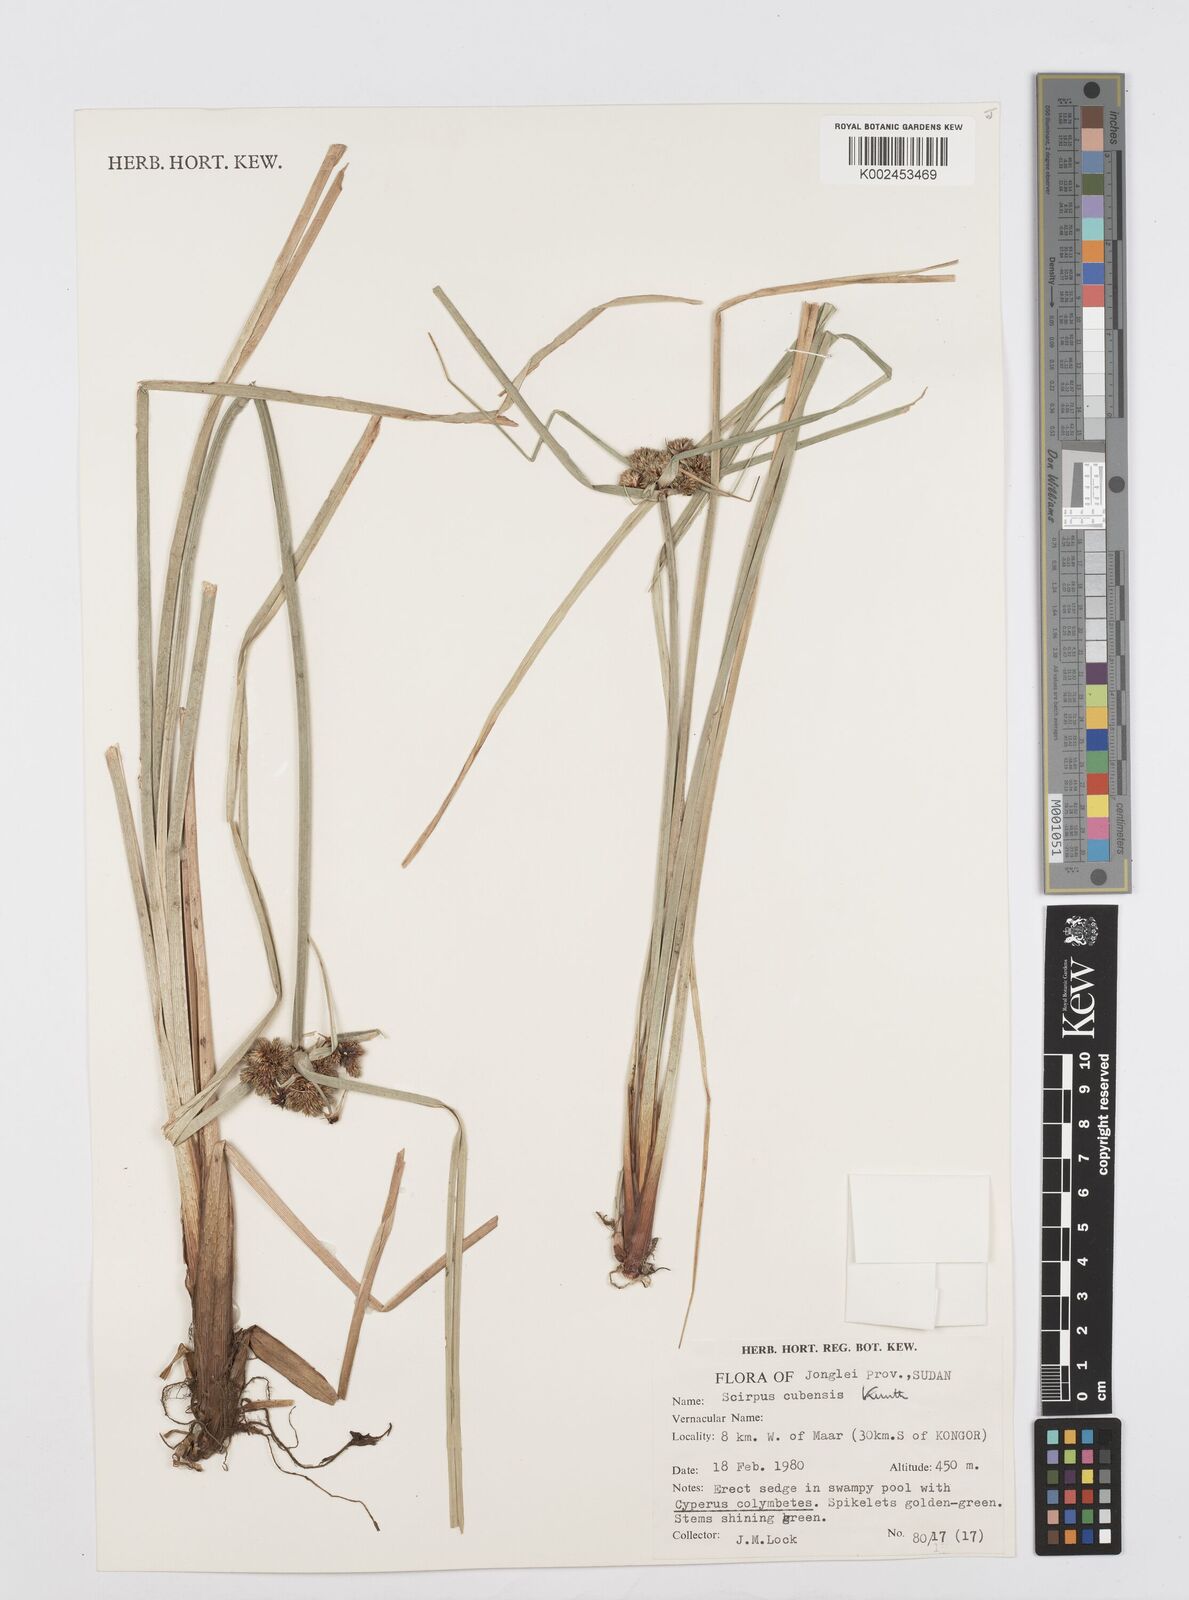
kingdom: Plantae
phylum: Tracheophyta
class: Liliopsida
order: Poales
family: Cyperaceae
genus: Cyperus
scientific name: Cyperus elegans
